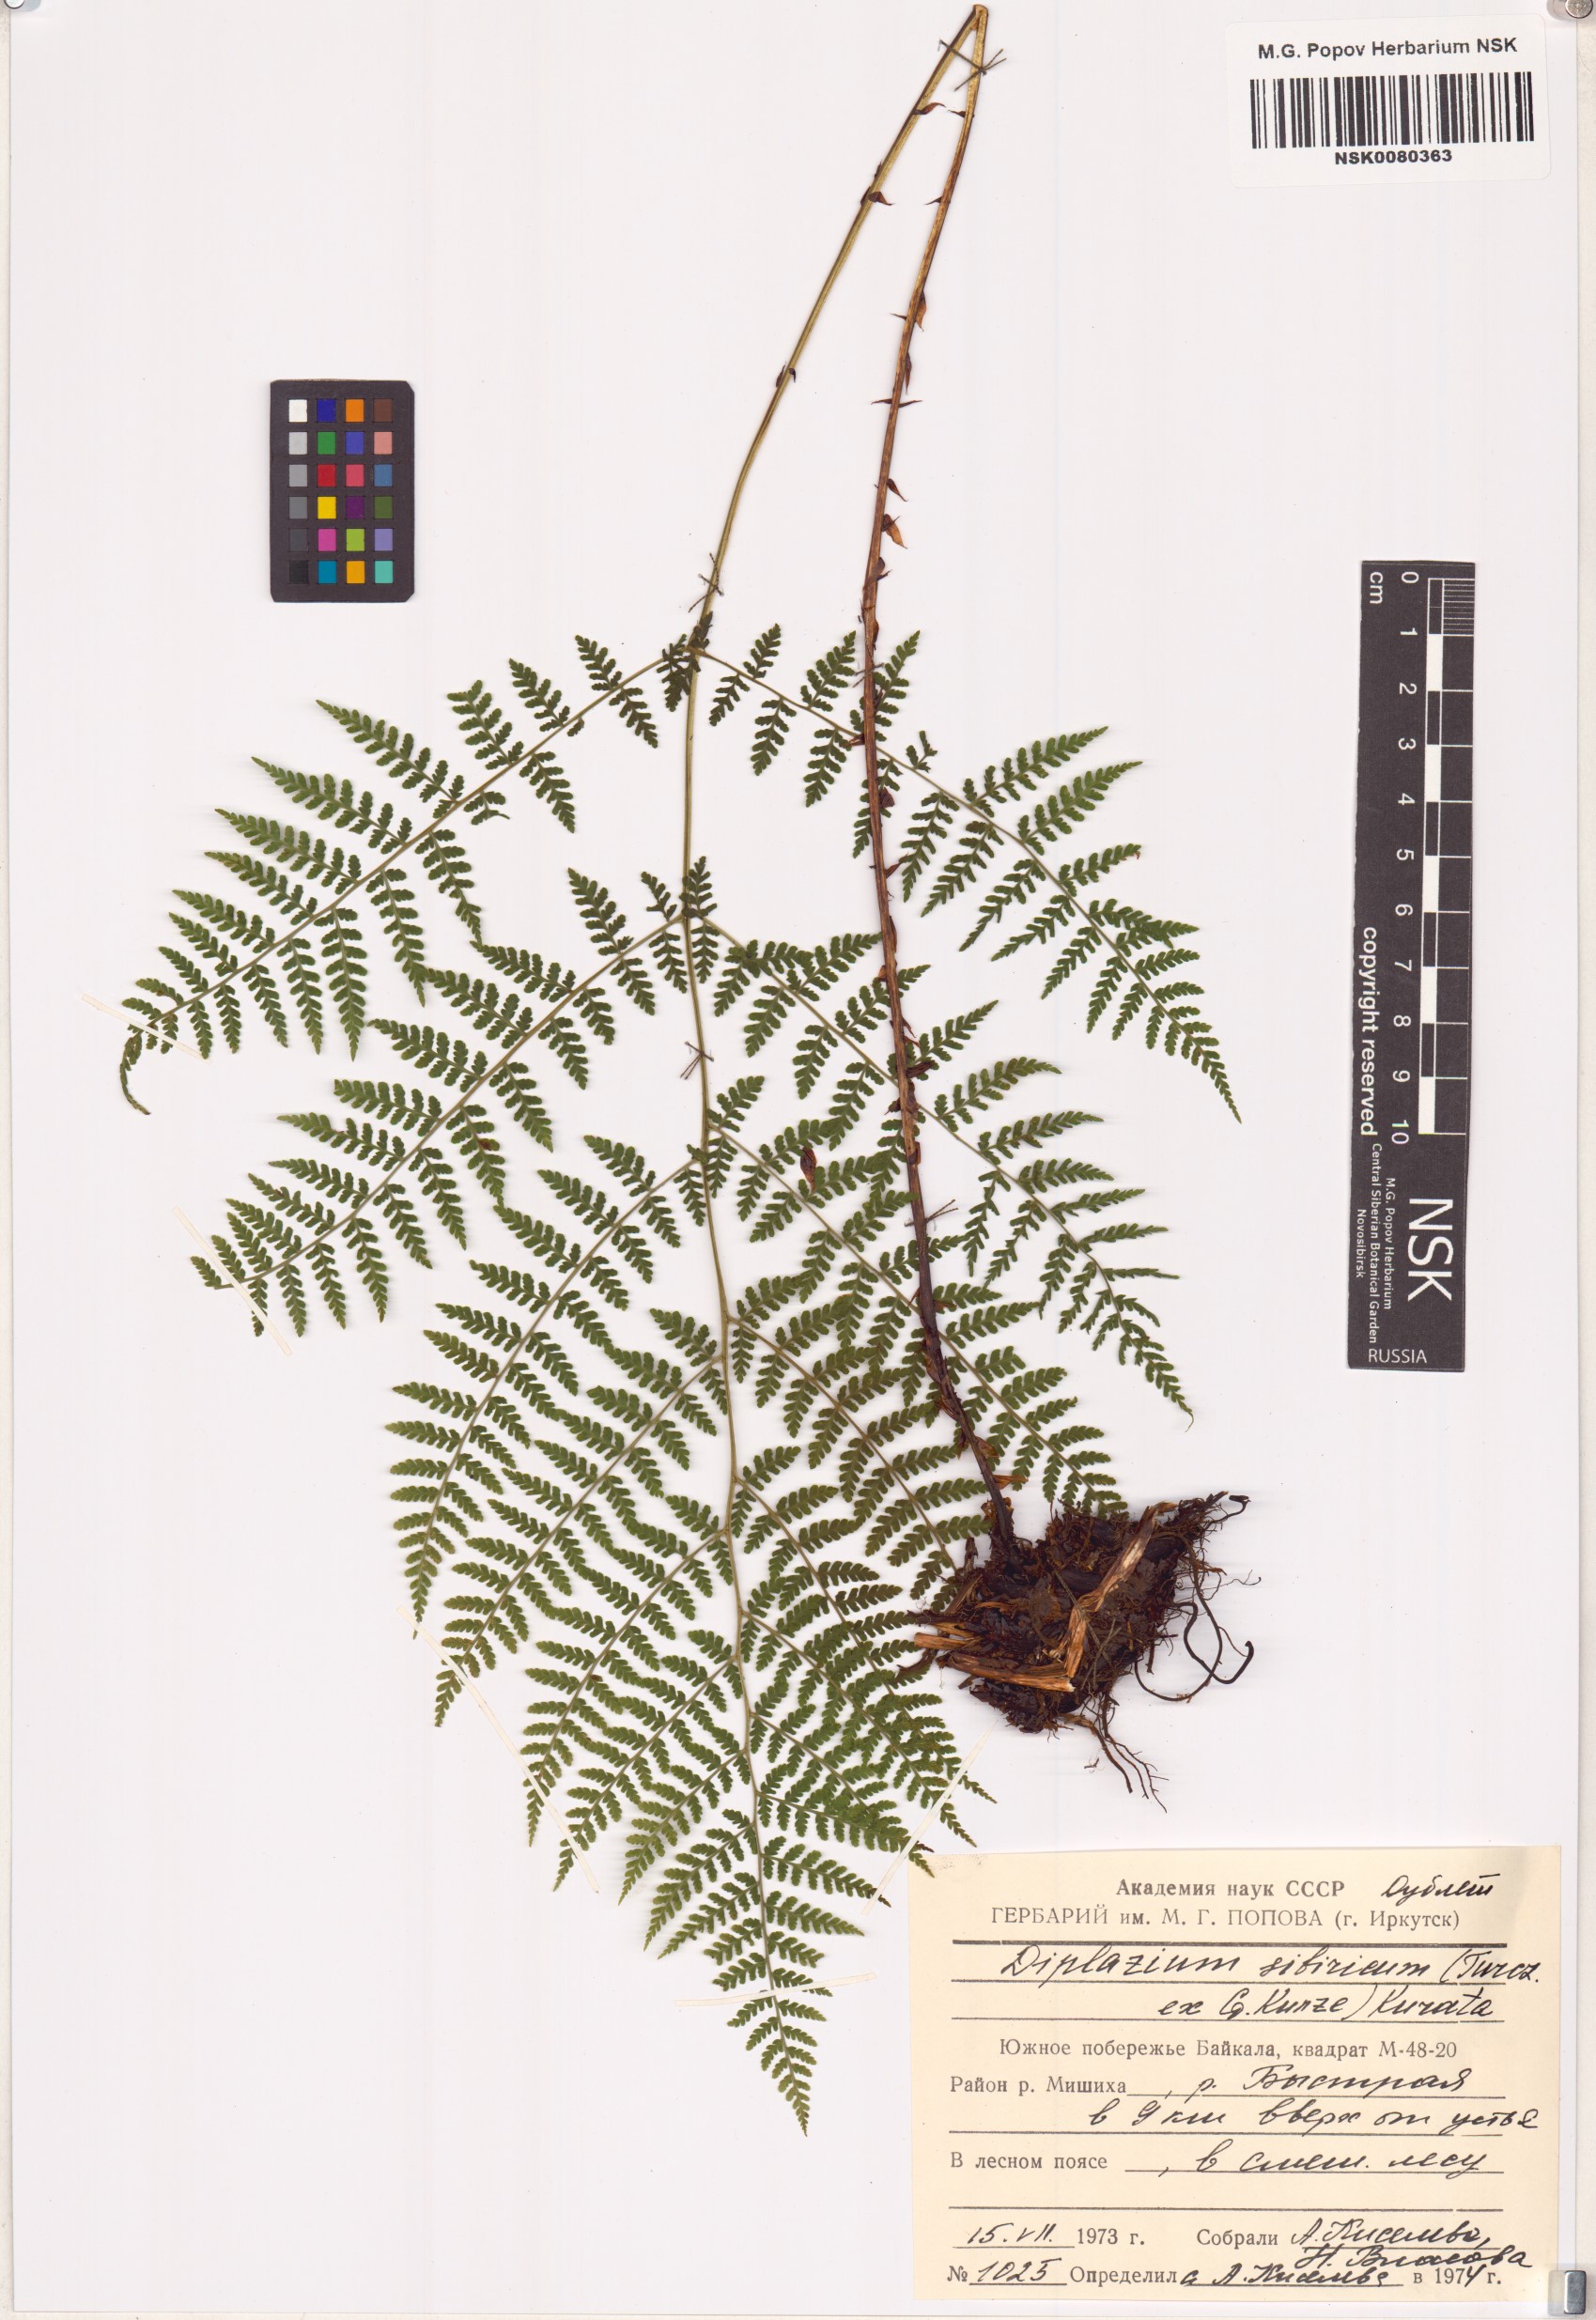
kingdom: Plantae
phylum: Tracheophyta
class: Polypodiopsida
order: Polypodiales
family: Athyriaceae
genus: Diplazium
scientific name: Diplazium sibiricum
